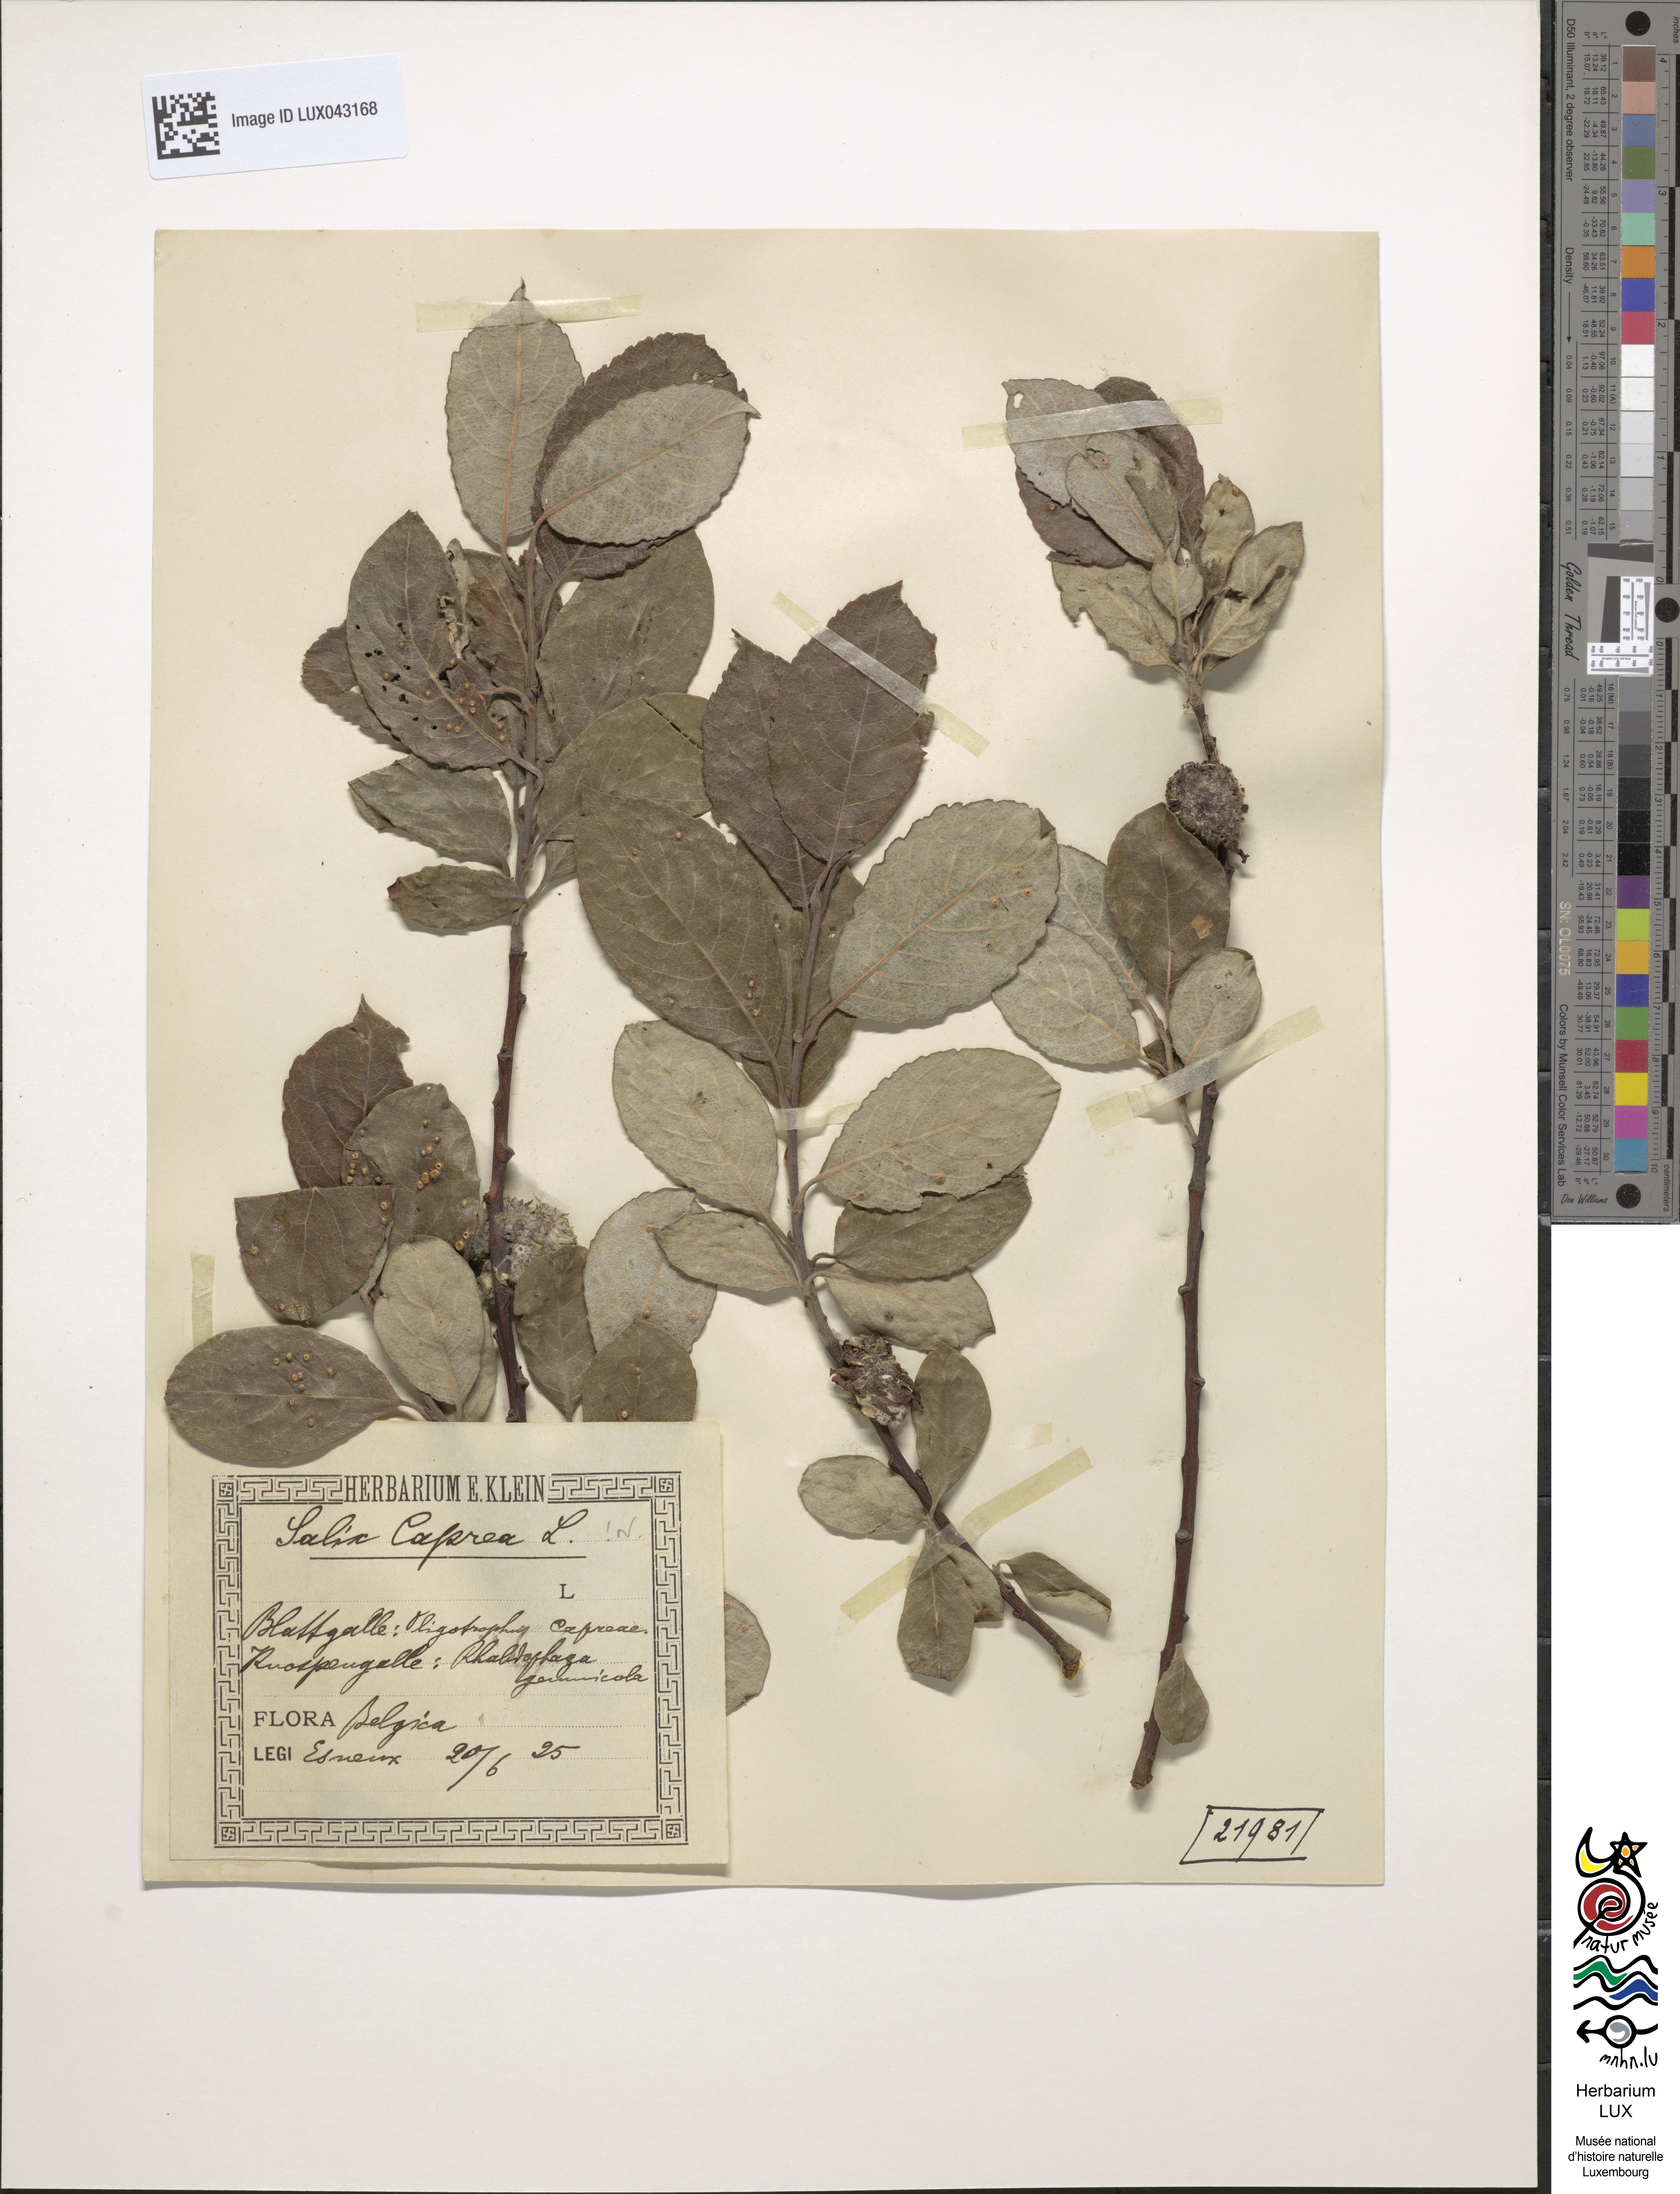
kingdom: Plantae
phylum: Tracheophyta
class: Magnoliopsida
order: Malpighiales
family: Salicaceae
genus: Salix
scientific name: Salix caprea
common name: Goat willow
